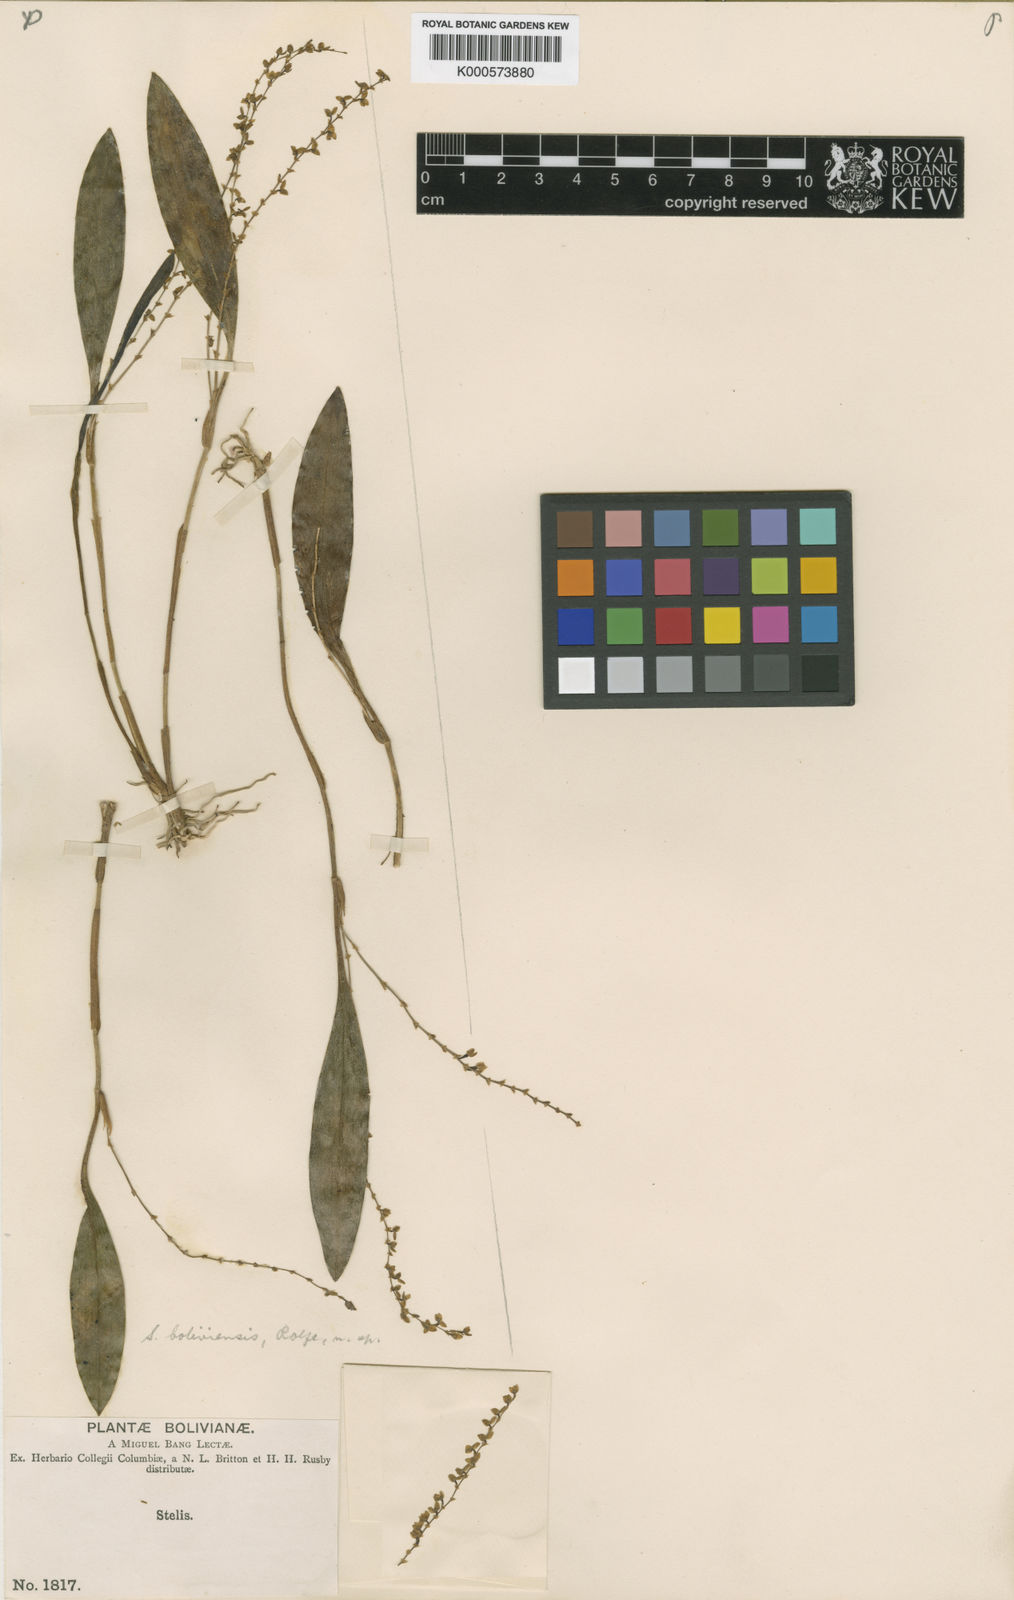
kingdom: Plantae
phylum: Tracheophyta
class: Liliopsida
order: Asparagales
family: Orchidaceae
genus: Stelis
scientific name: Stelis campanulifera
